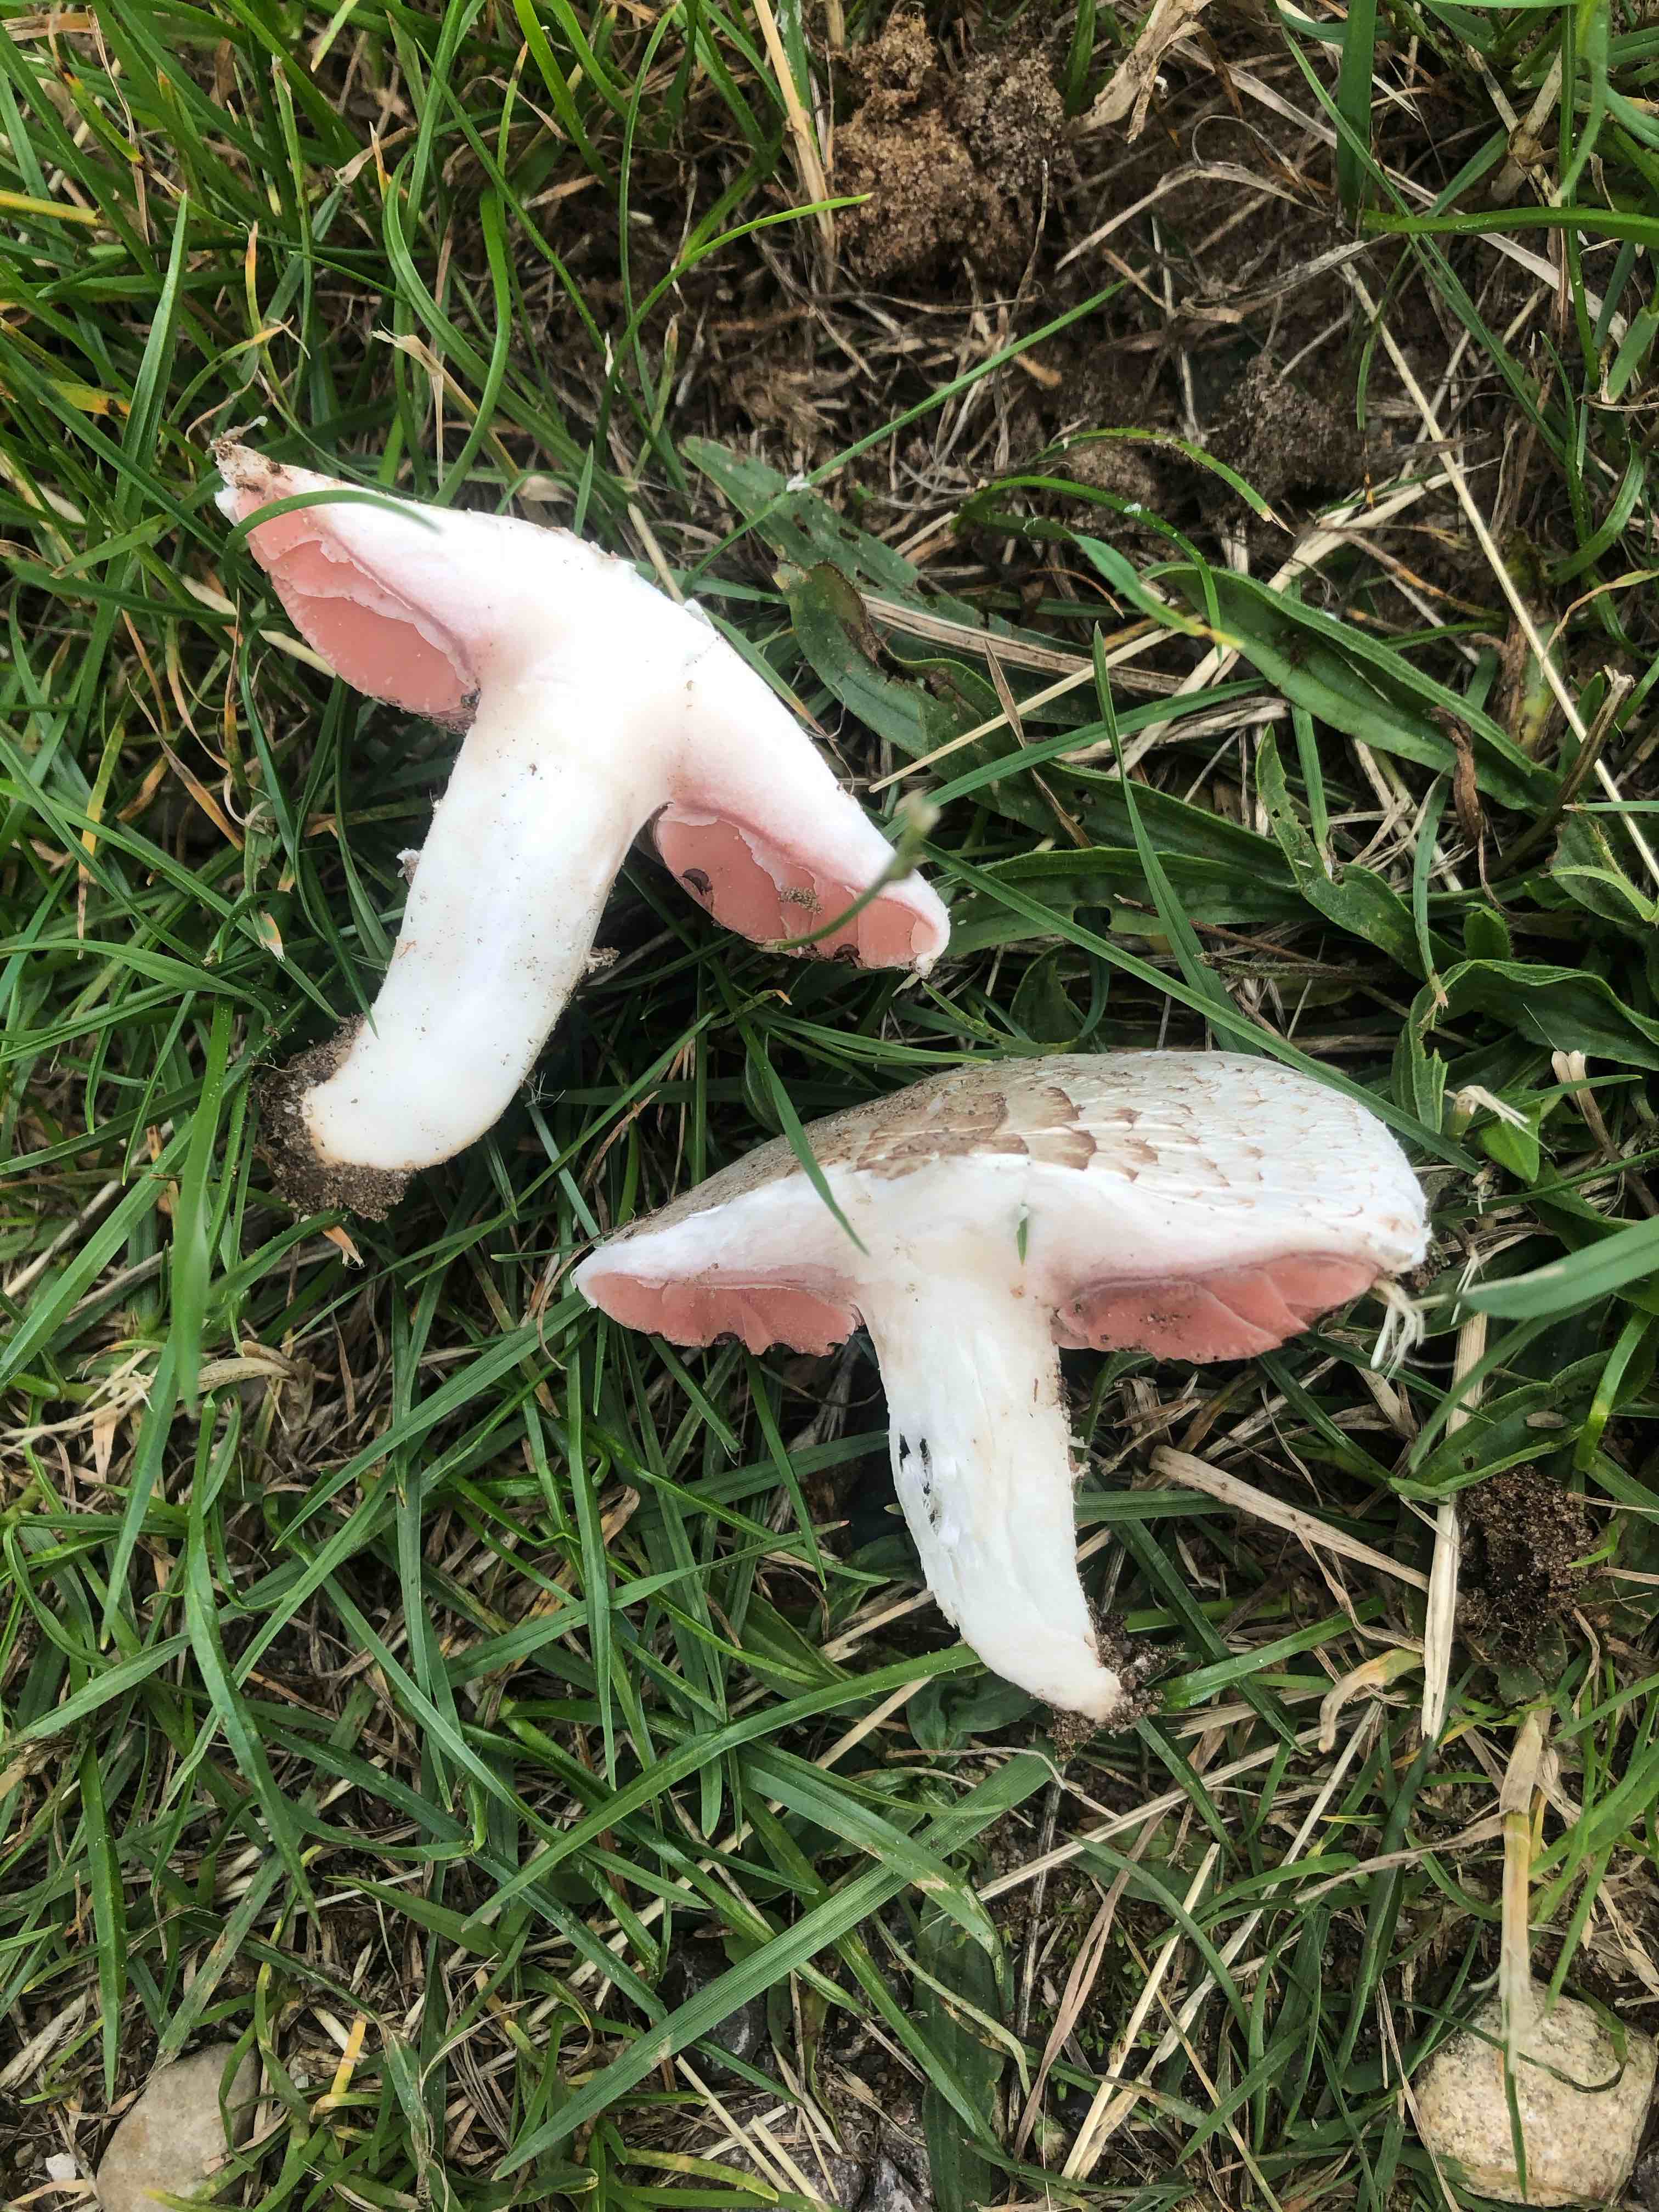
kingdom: Fungi
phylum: Basidiomycota
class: Agaricomycetes
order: Agaricales
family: Agaricaceae
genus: Agaricus
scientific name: Agaricus campestris
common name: mark-champignon
